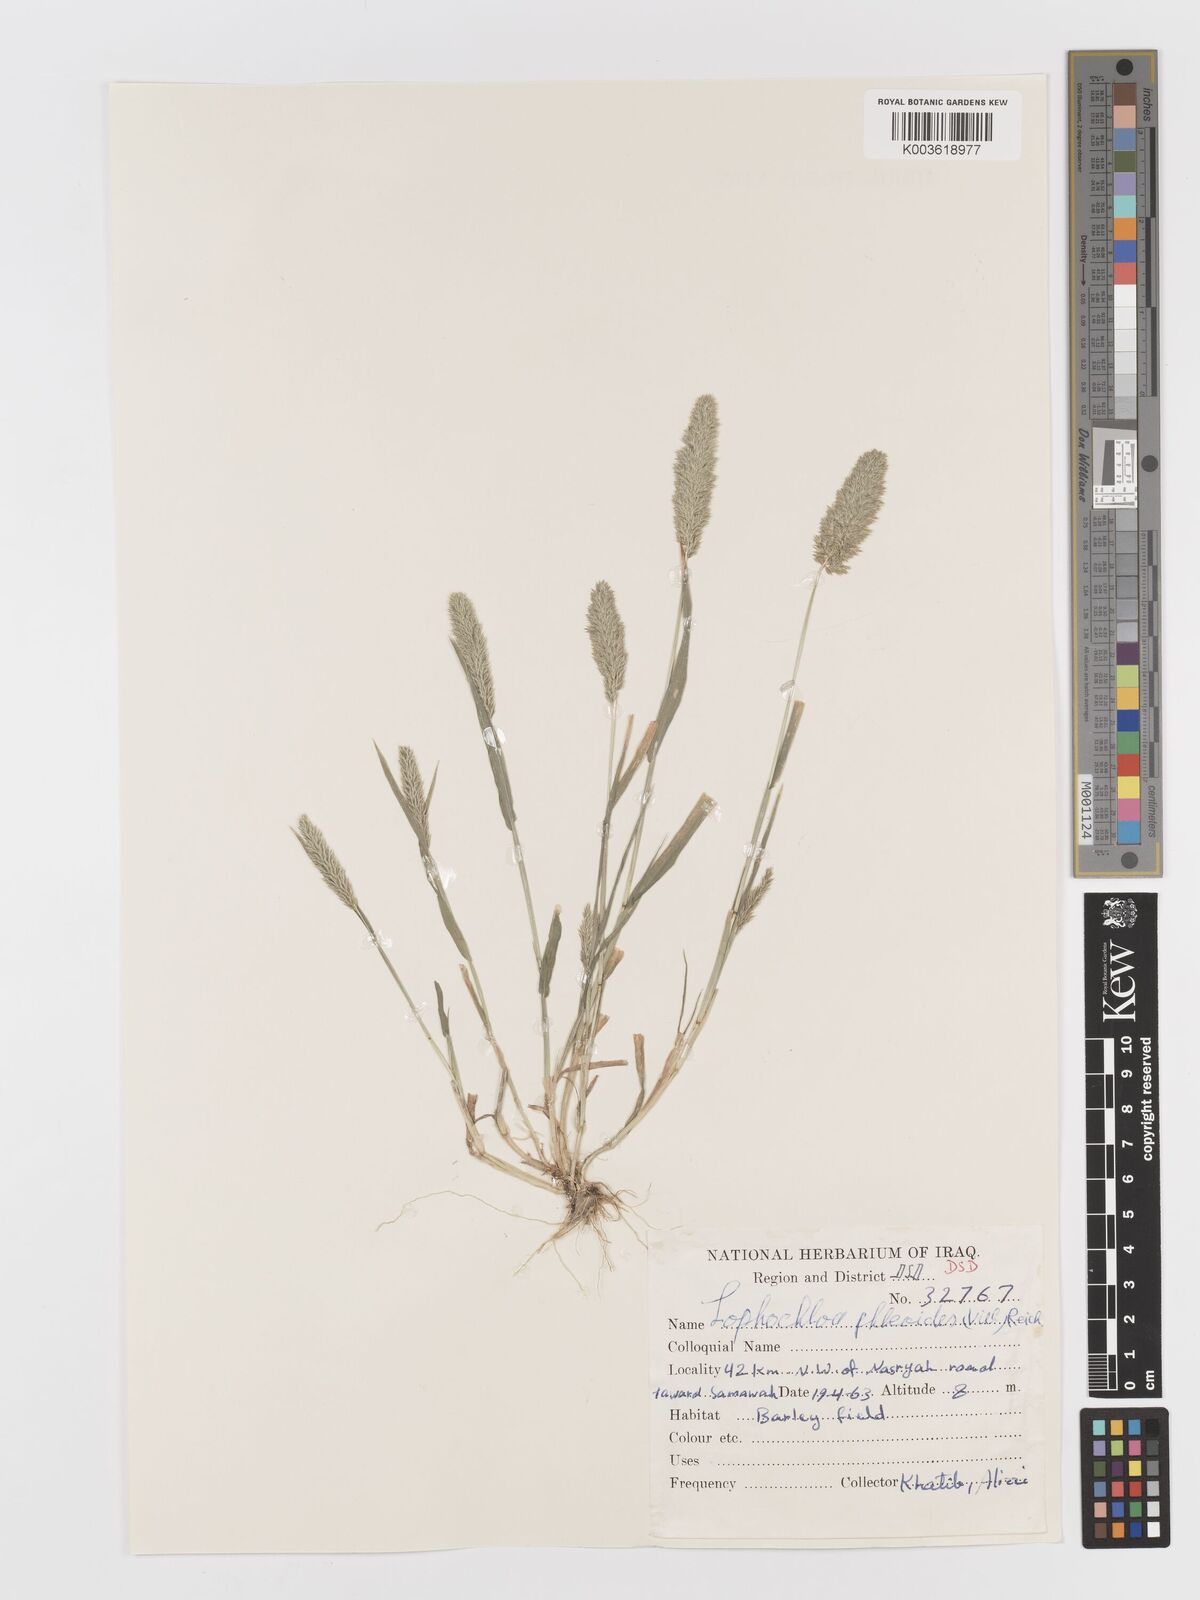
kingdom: Plantae
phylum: Tracheophyta
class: Liliopsida
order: Poales
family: Poaceae
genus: Rostraria
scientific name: Rostraria cristata
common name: Mediterranean hair-grass
